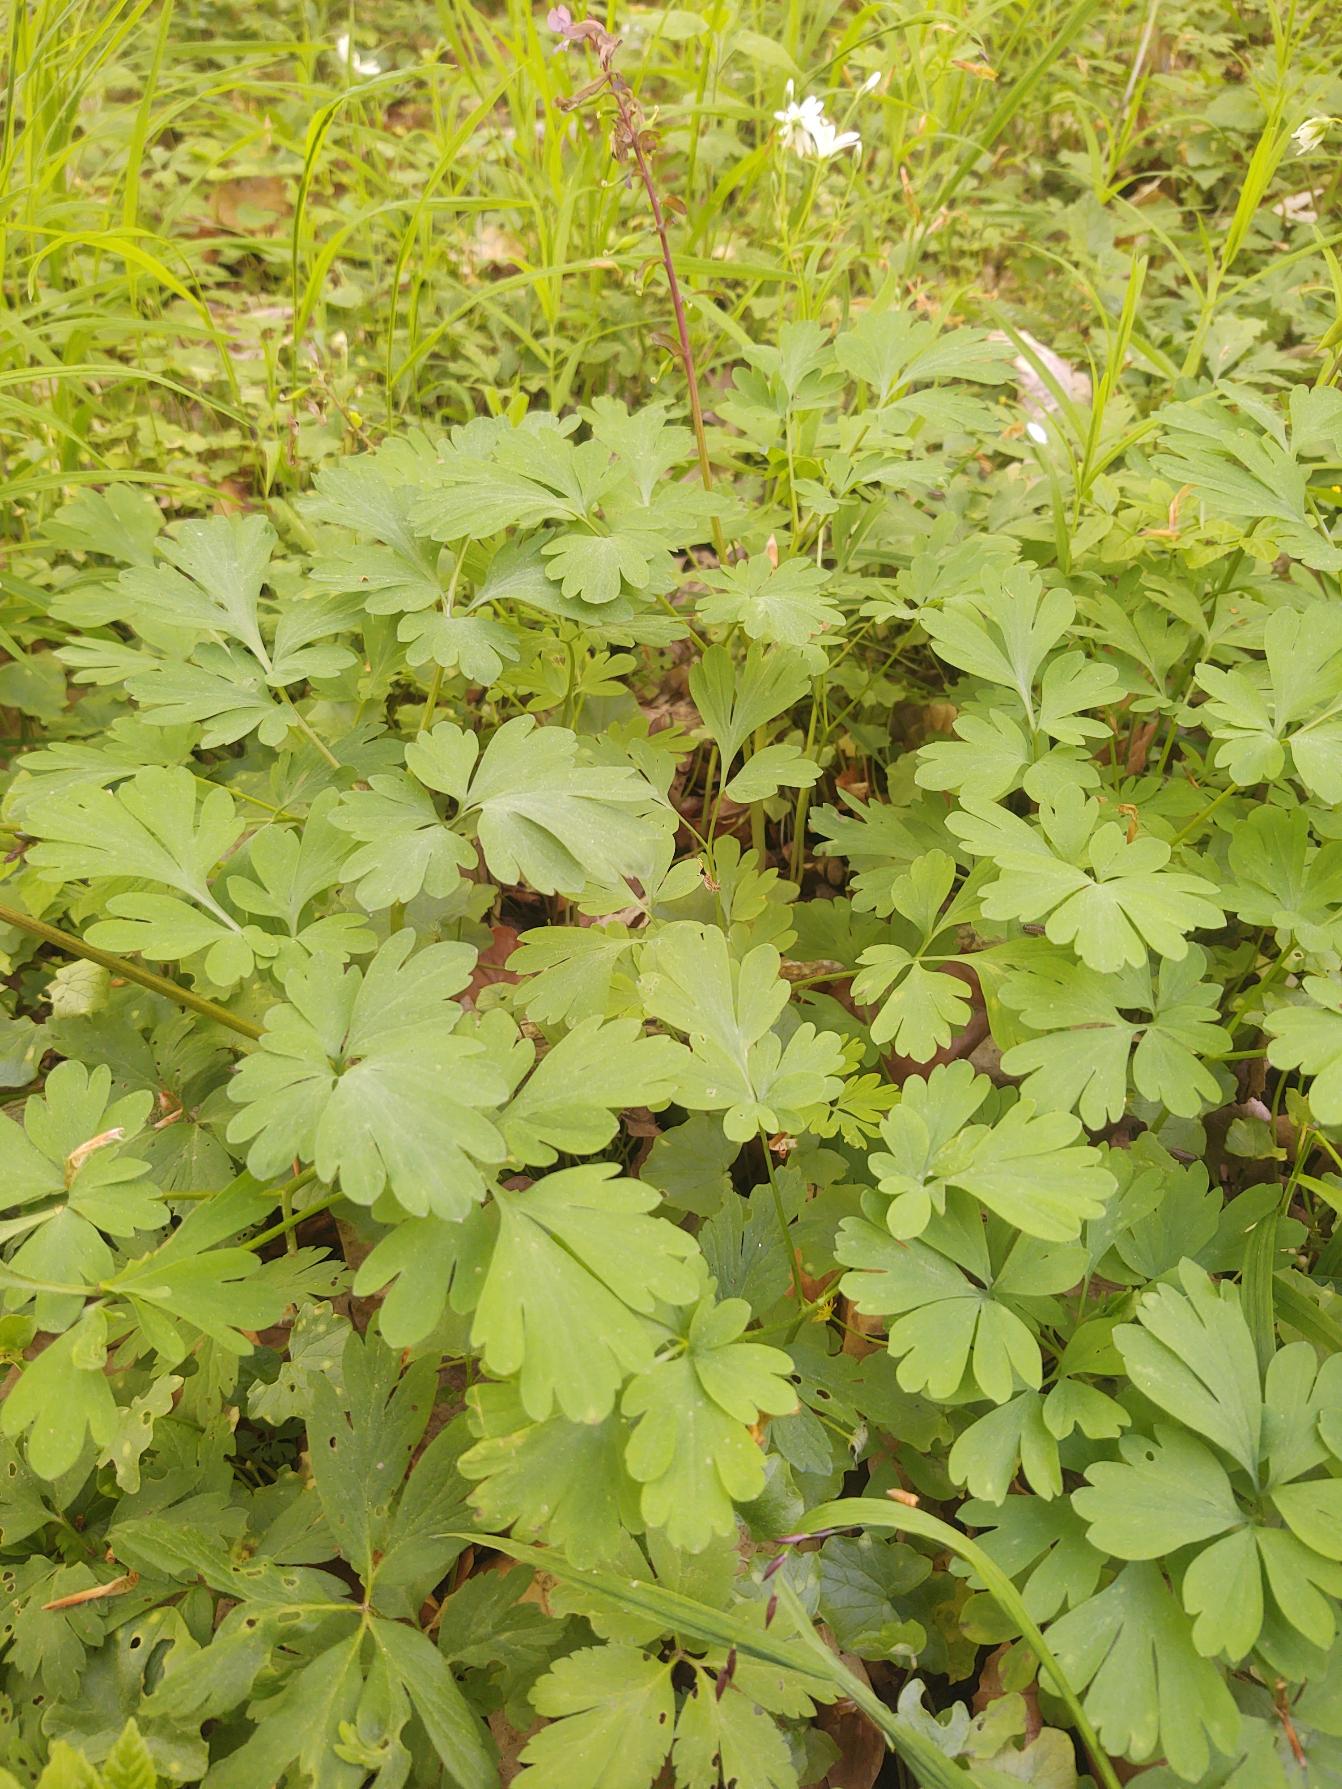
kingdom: Plantae
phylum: Tracheophyta
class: Magnoliopsida
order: Ranunculales
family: Papaveraceae
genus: Corydalis
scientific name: Corydalis cava
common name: Hulrodet lærkespore
